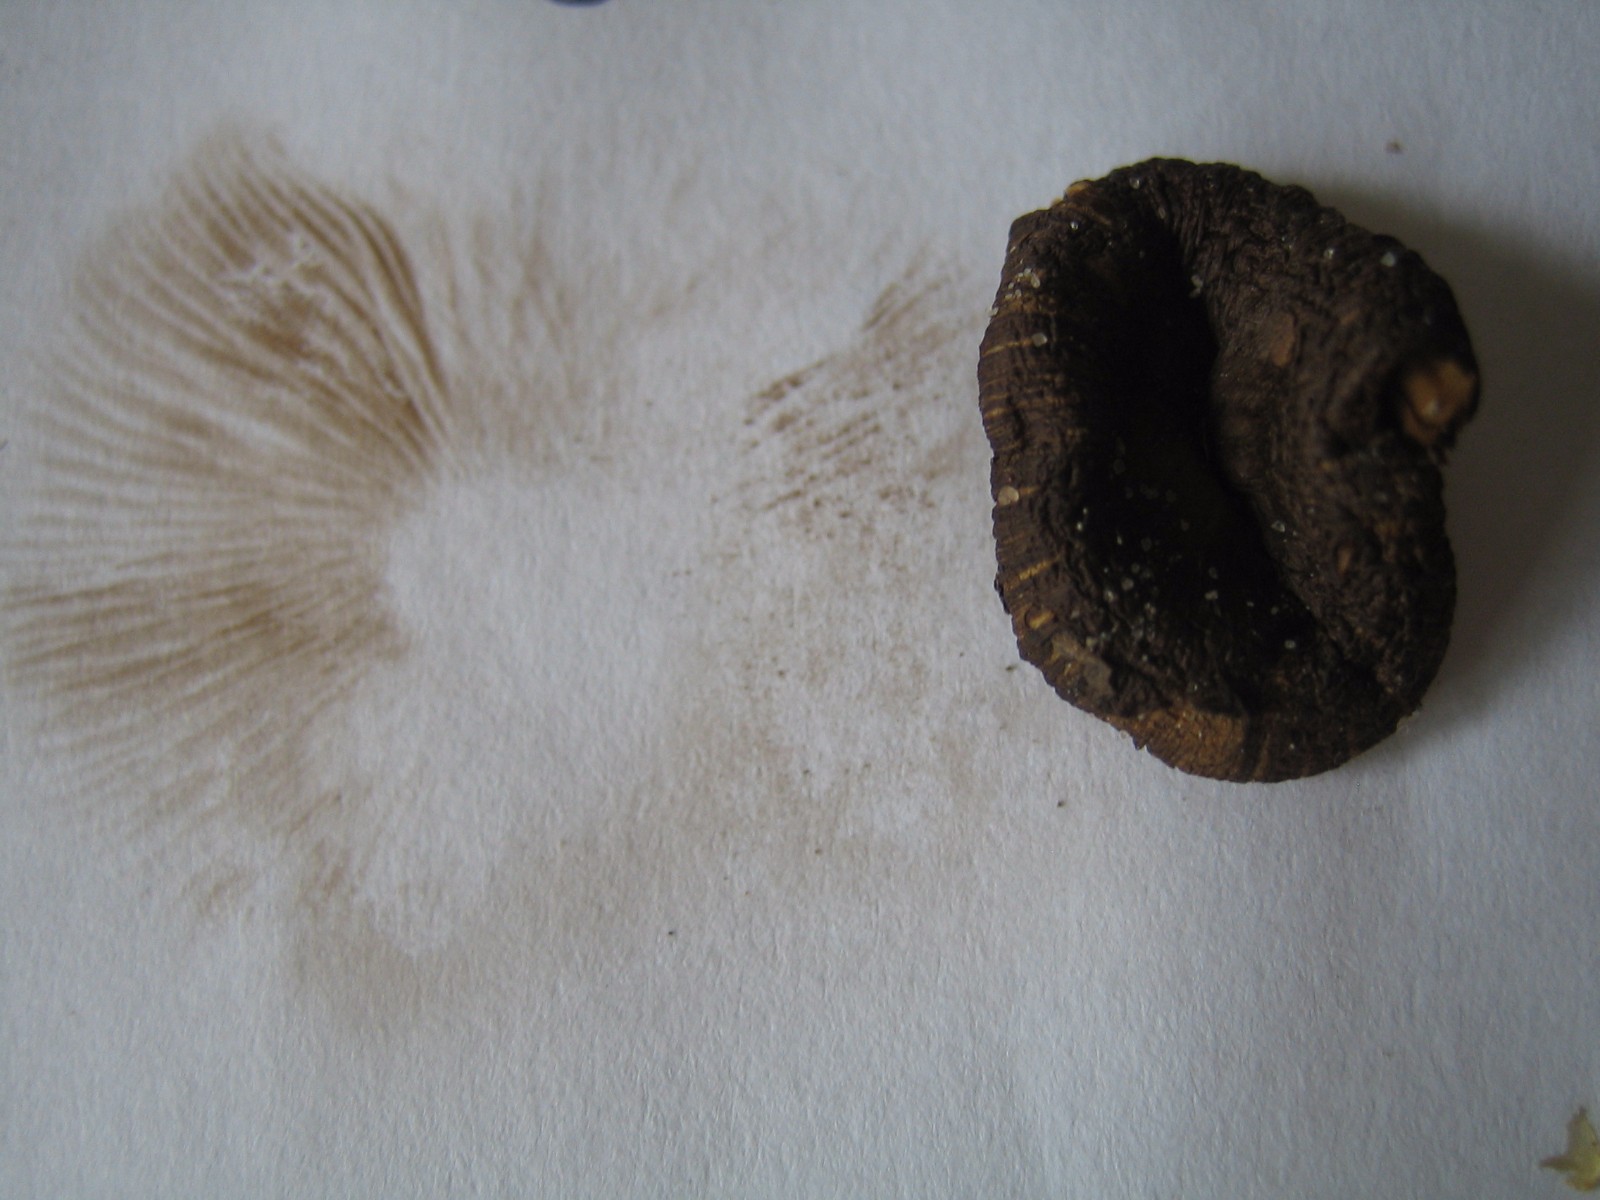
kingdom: Fungi
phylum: Basidiomycota
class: Agaricomycetes
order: Agaricales
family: Inocybaceae
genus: Inocybe
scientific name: Inocybe
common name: trævlhat
